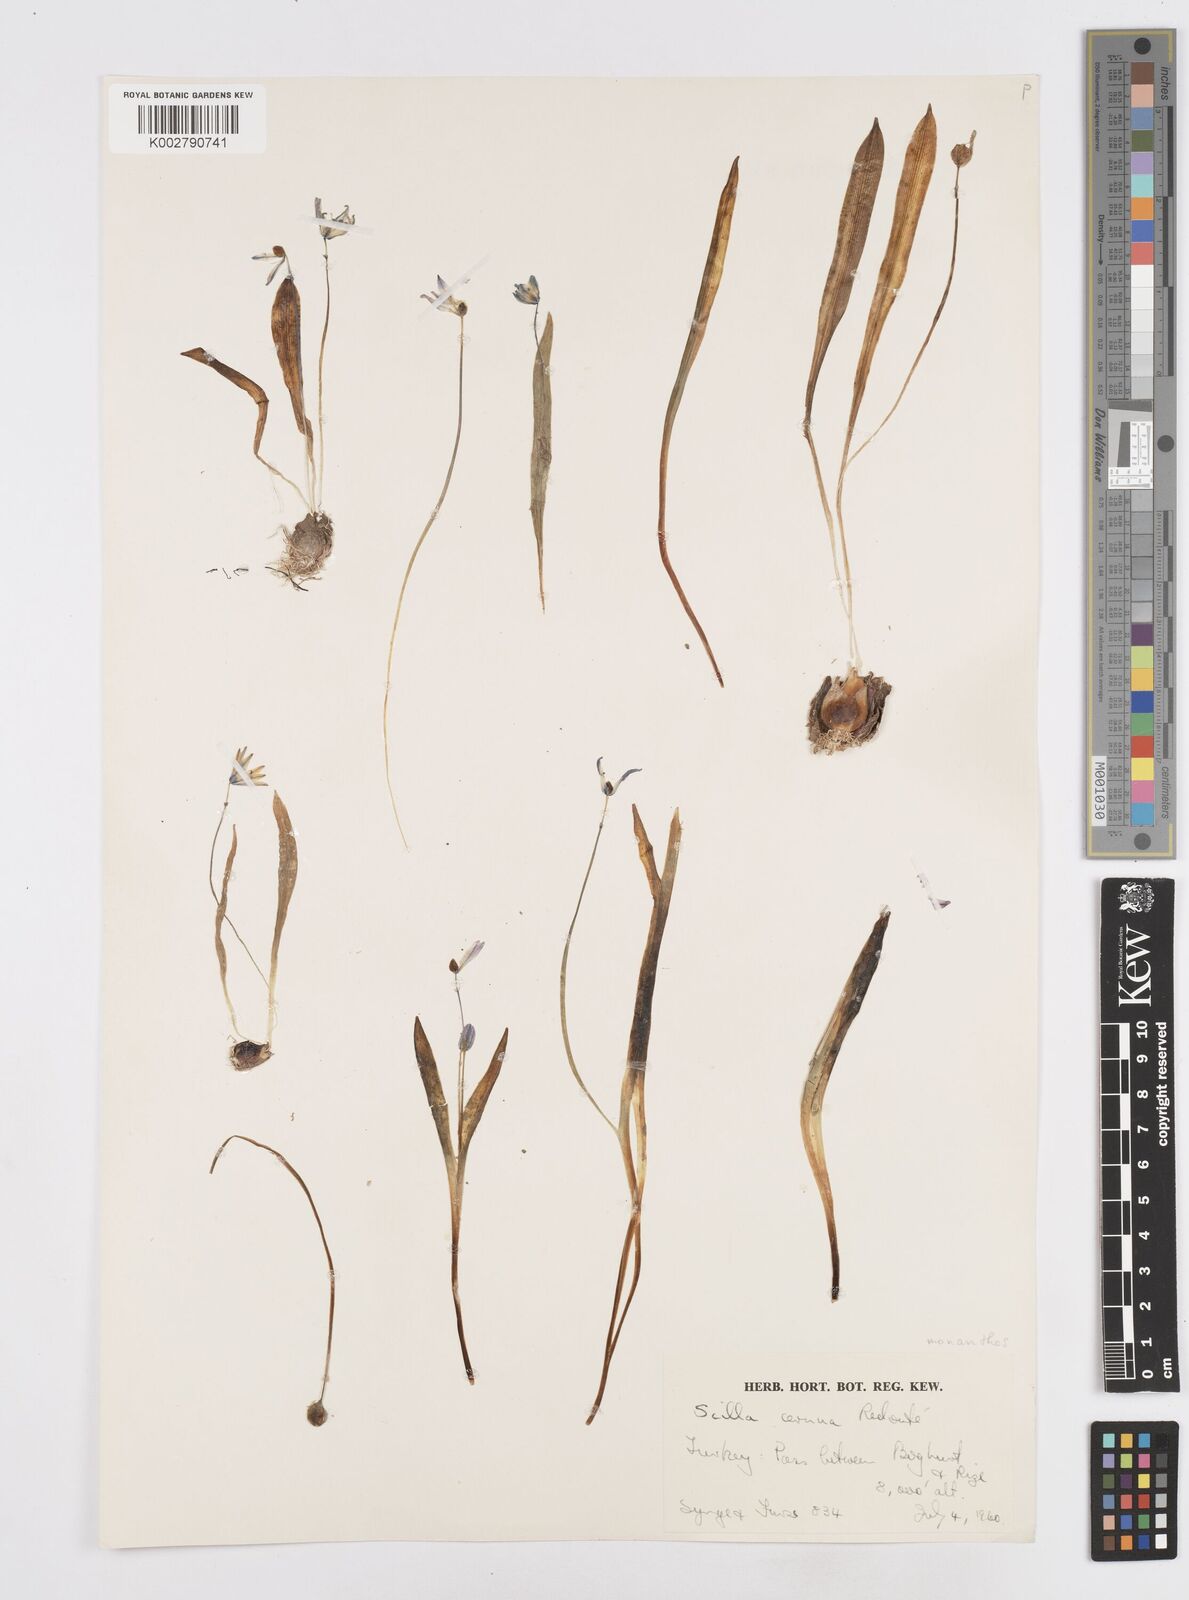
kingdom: Plantae
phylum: Tracheophyta
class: Liliopsida
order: Asparagales
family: Asparagaceae
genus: Scilla
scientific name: Scilla monanthos
